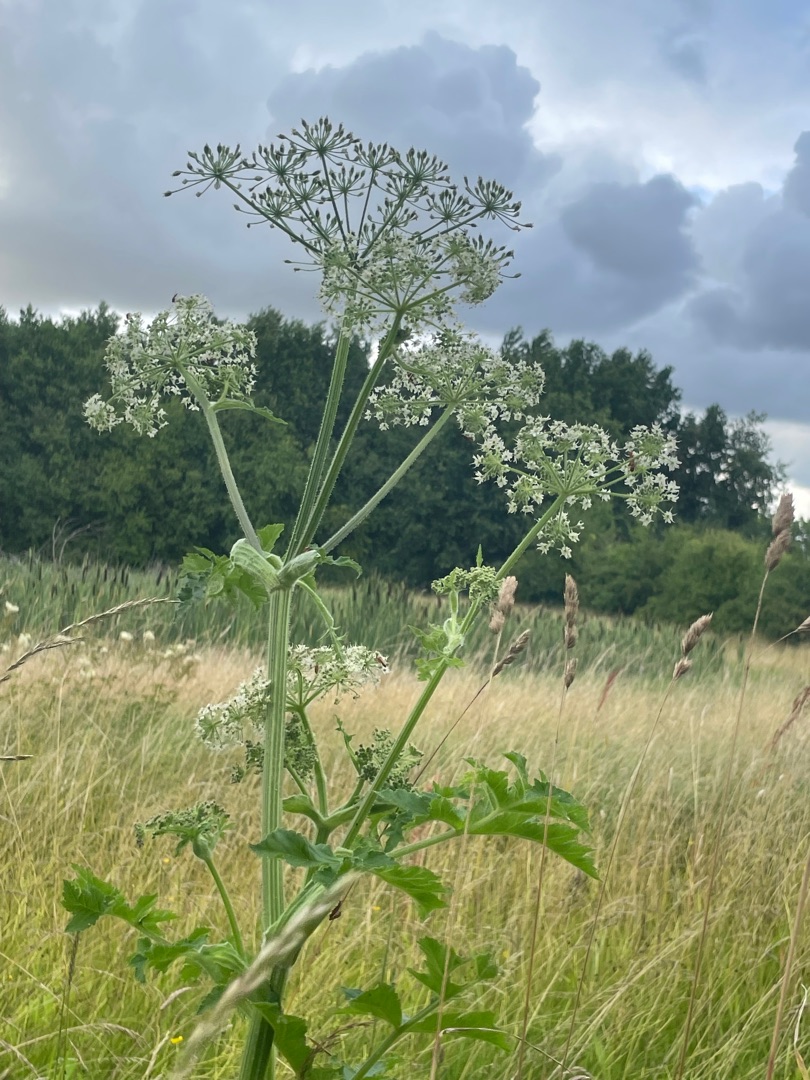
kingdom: Plantae
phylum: Tracheophyta
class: Magnoliopsida
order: Apiales
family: Apiaceae
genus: Heracleum
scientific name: Heracleum sphondylium
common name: Almindelig bjørneklo
